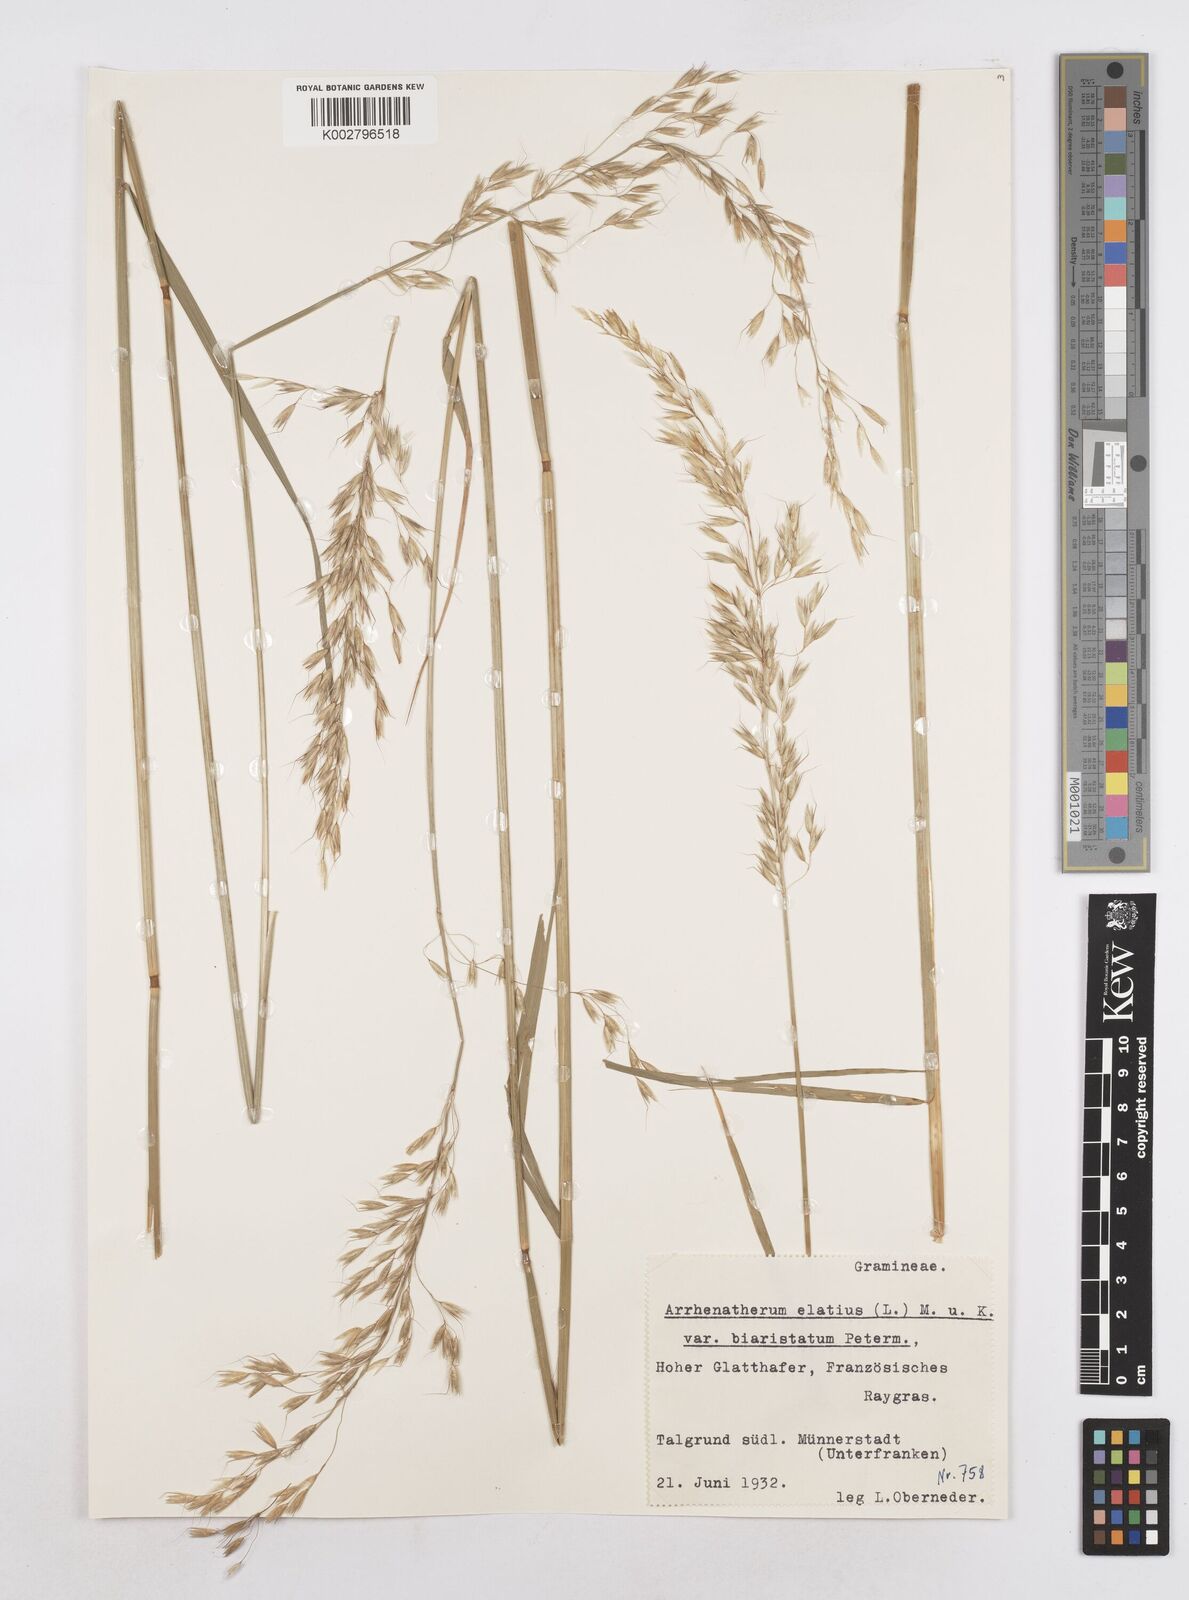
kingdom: Plantae
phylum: Tracheophyta
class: Liliopsida
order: Poales
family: Poaceae
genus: Arrhenatherum
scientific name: Arrhenatherum elatius
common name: Tall oatgrass
